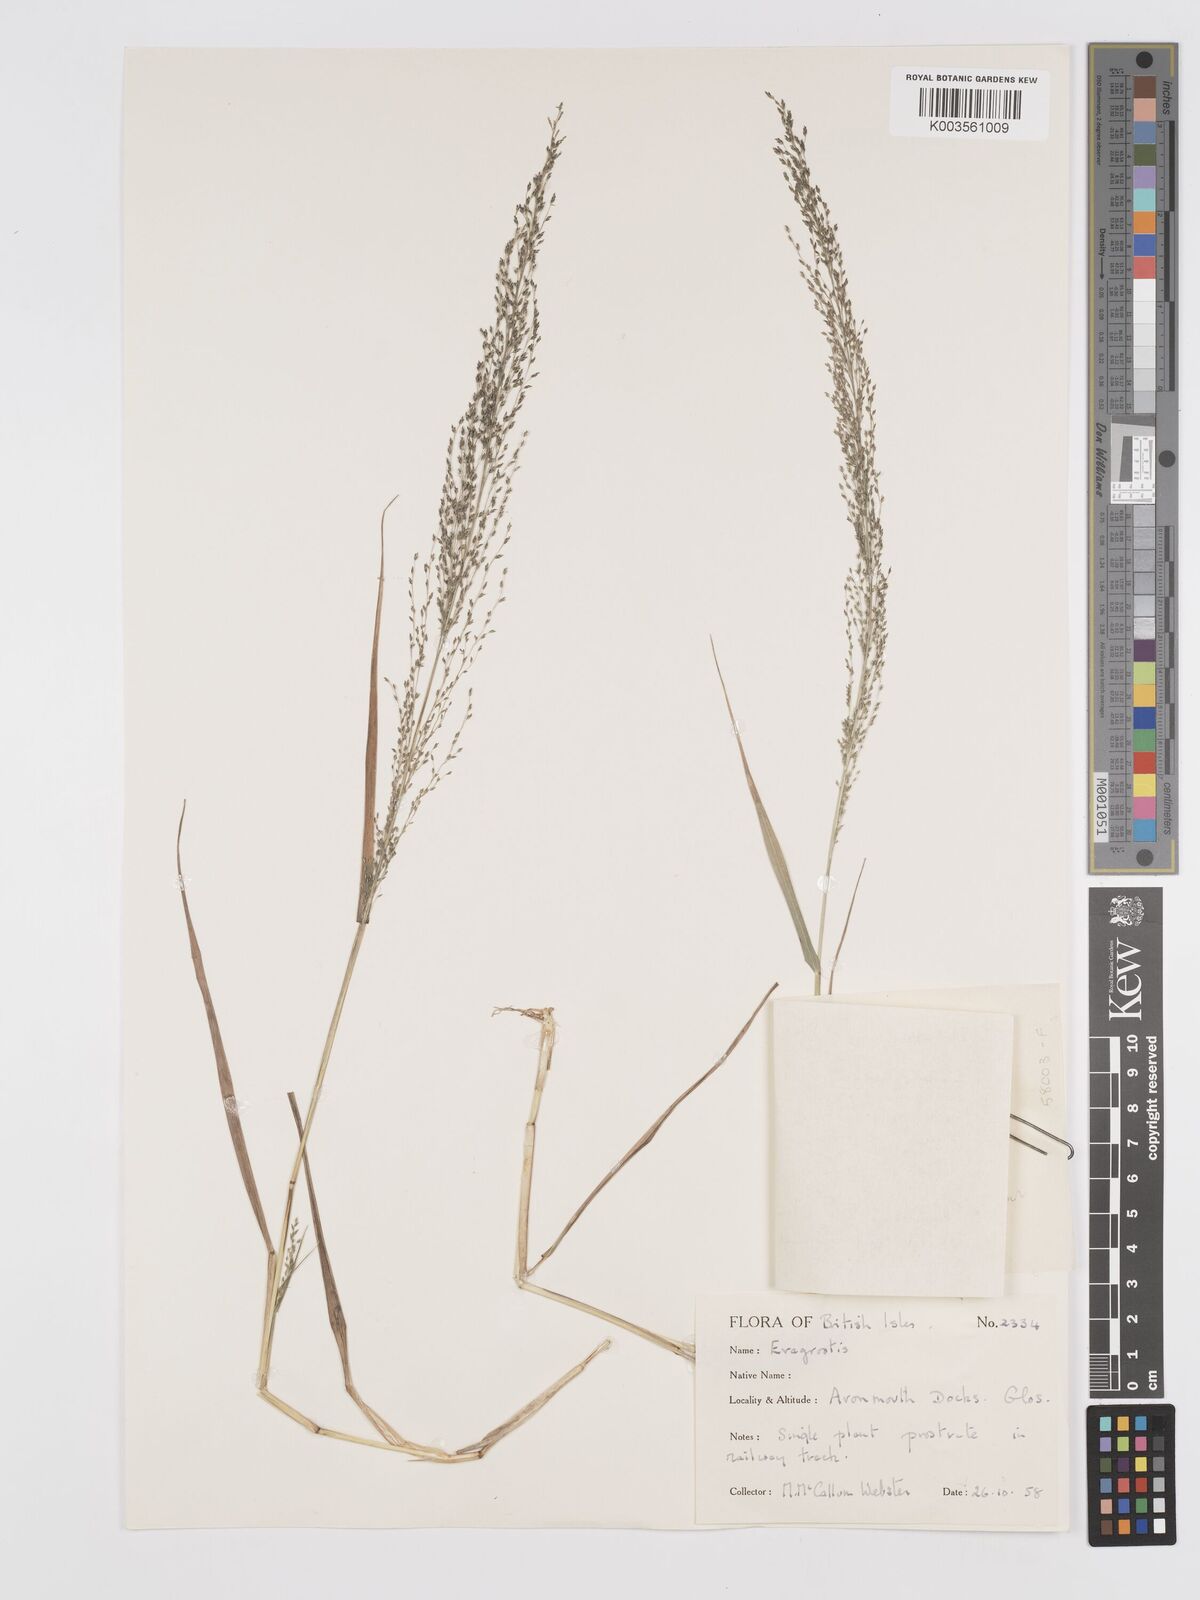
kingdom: Plantae
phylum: Tracheophyta
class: Liliopsida
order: Poales
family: Poaceae
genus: Eragrostis
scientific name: Eragrostis
